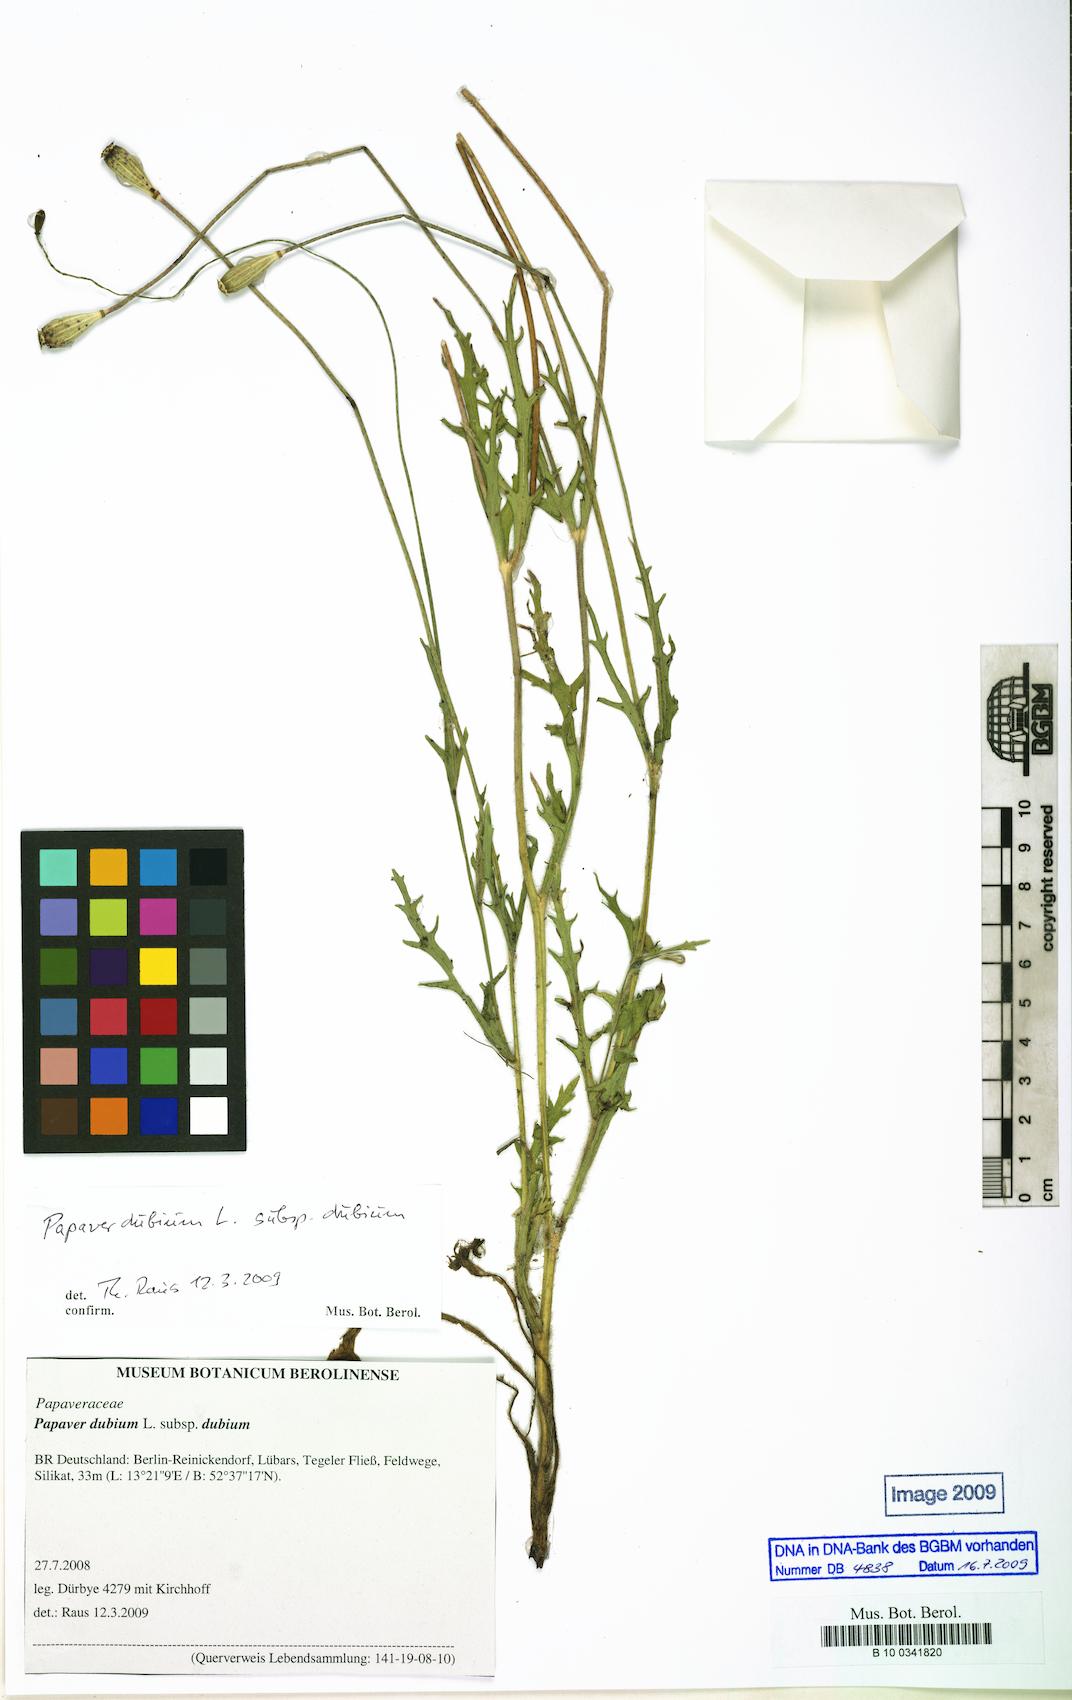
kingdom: Plantae
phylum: Tracheophyta
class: Magnoliopsida
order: Ranunculales
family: Papaveraceae
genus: Papaver
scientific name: Papaver dubium
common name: Long-headed poppy
